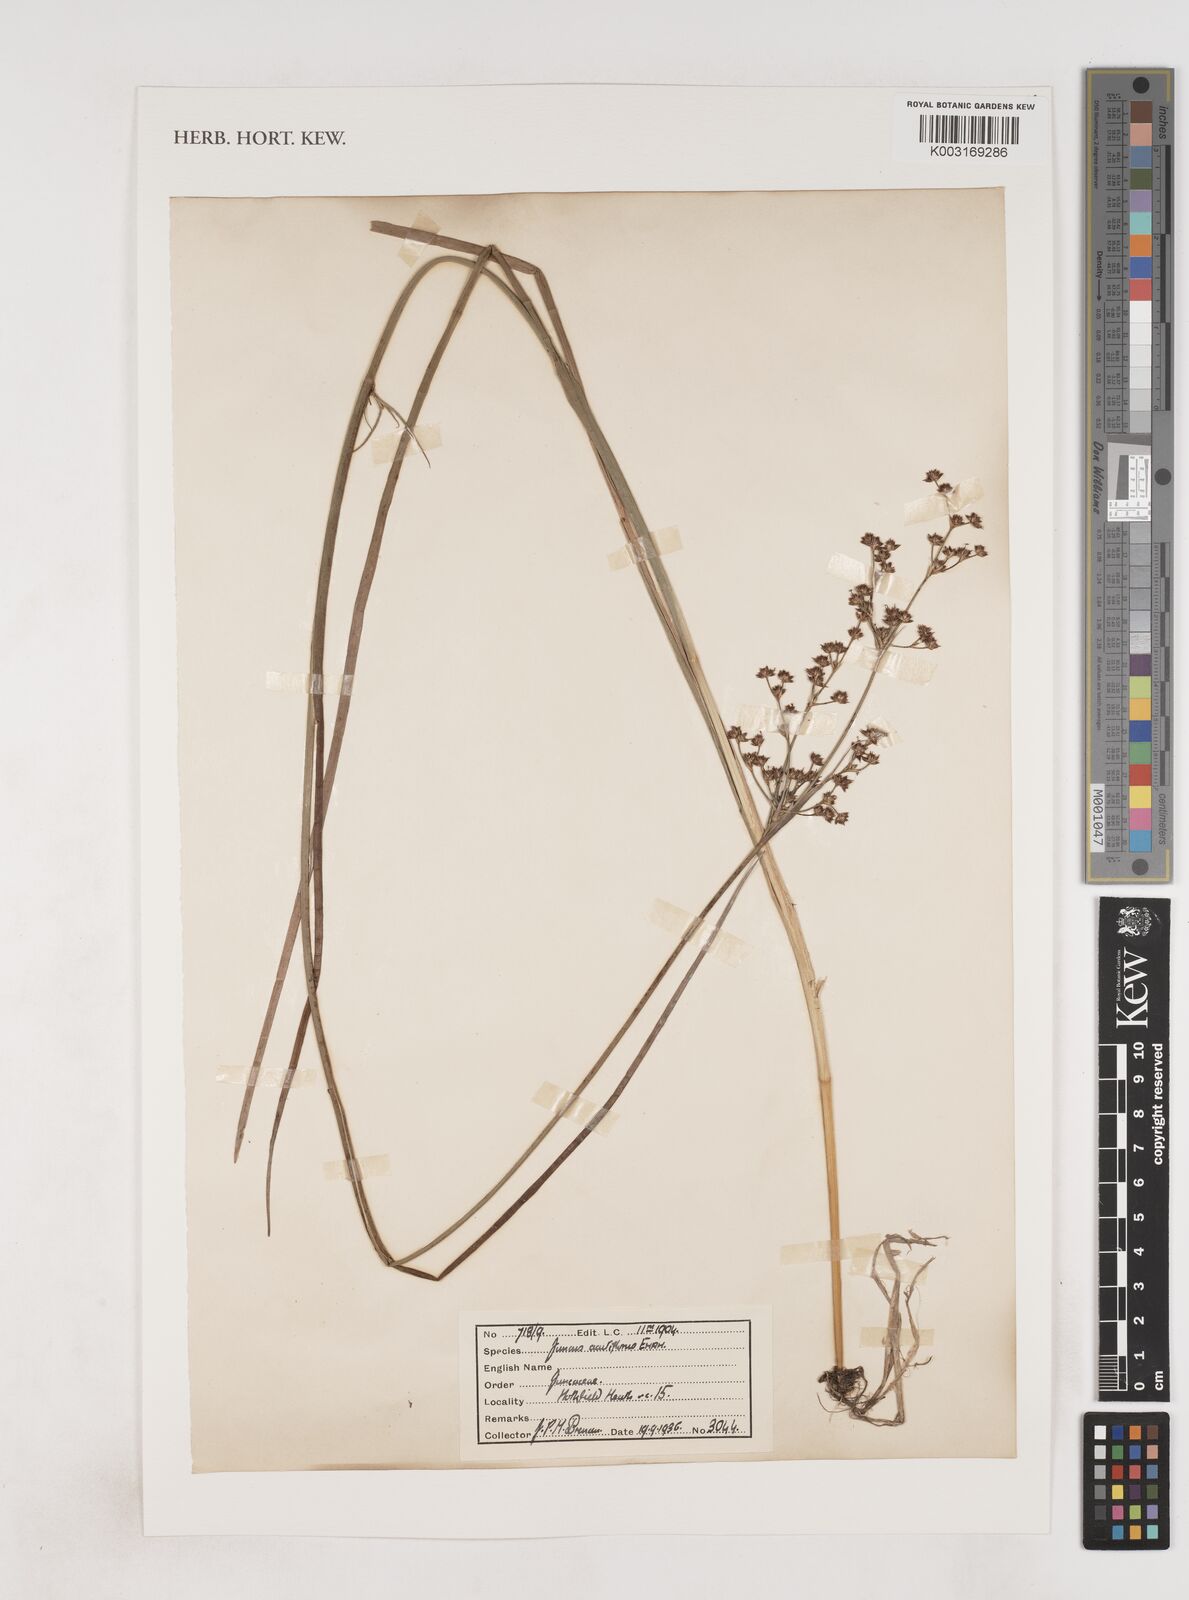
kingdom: Plantae
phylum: Tracheophyta
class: Liliopsida
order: Poales
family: Juncaceae
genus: Juncus
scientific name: Juncus acutiflorus
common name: Sharp-flowered rush
